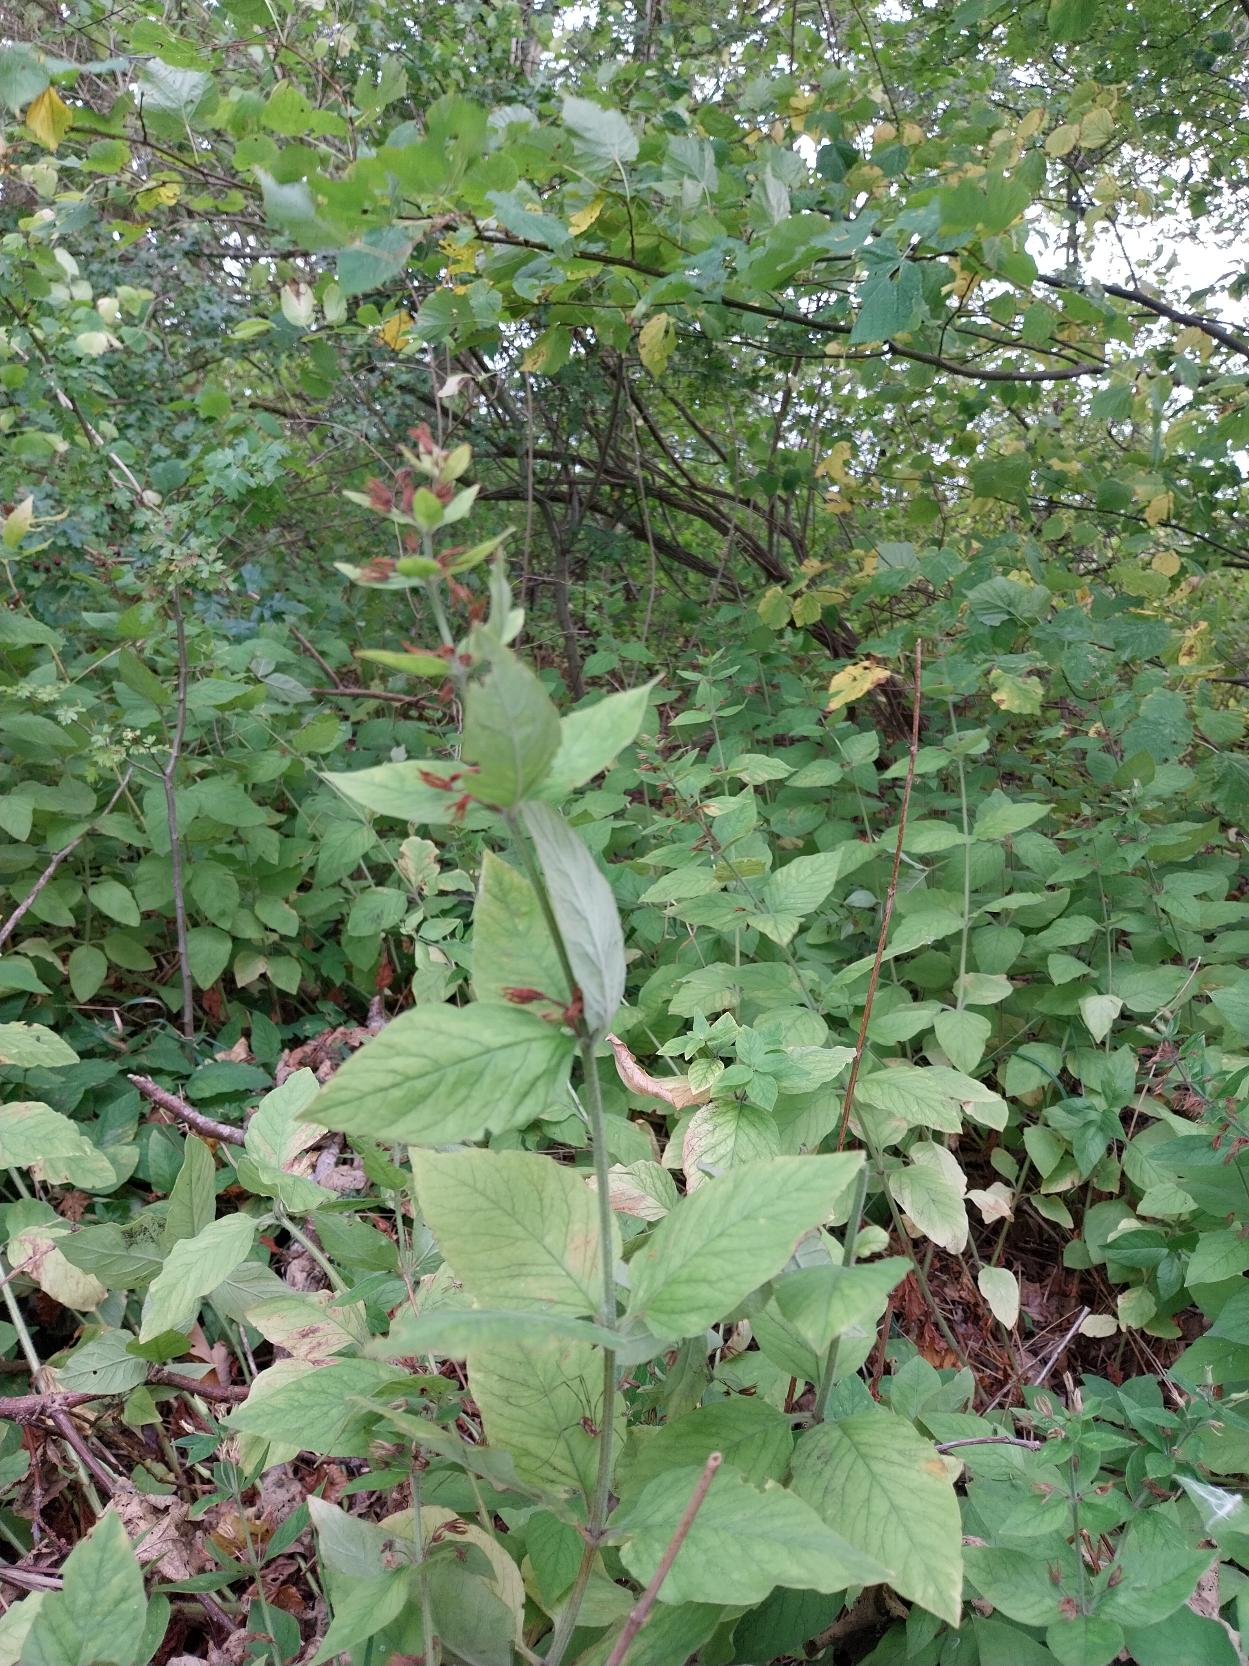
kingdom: Plantae
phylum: Tracheophyta
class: Magnoliopsida
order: Ericales
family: Primulaceae
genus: Lysimachia
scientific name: Lysimachia punctata
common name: Prikbladet fredløs
